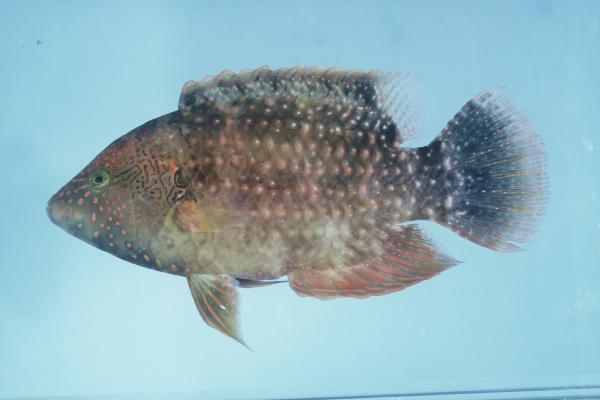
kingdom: Animalia
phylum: Chordata
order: Perciformes
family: Labridae
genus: Cheilinus
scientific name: Cheilinus chlorourus
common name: Floral wrasse
